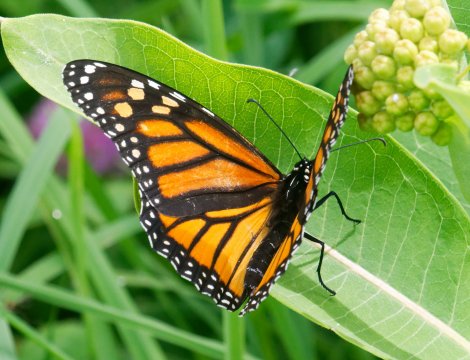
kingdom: Animalia
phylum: Arthropoda
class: Insecta
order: Lepidoptera
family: Nymphalidae
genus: Danaus
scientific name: Danaus plexippus
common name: Monarch
